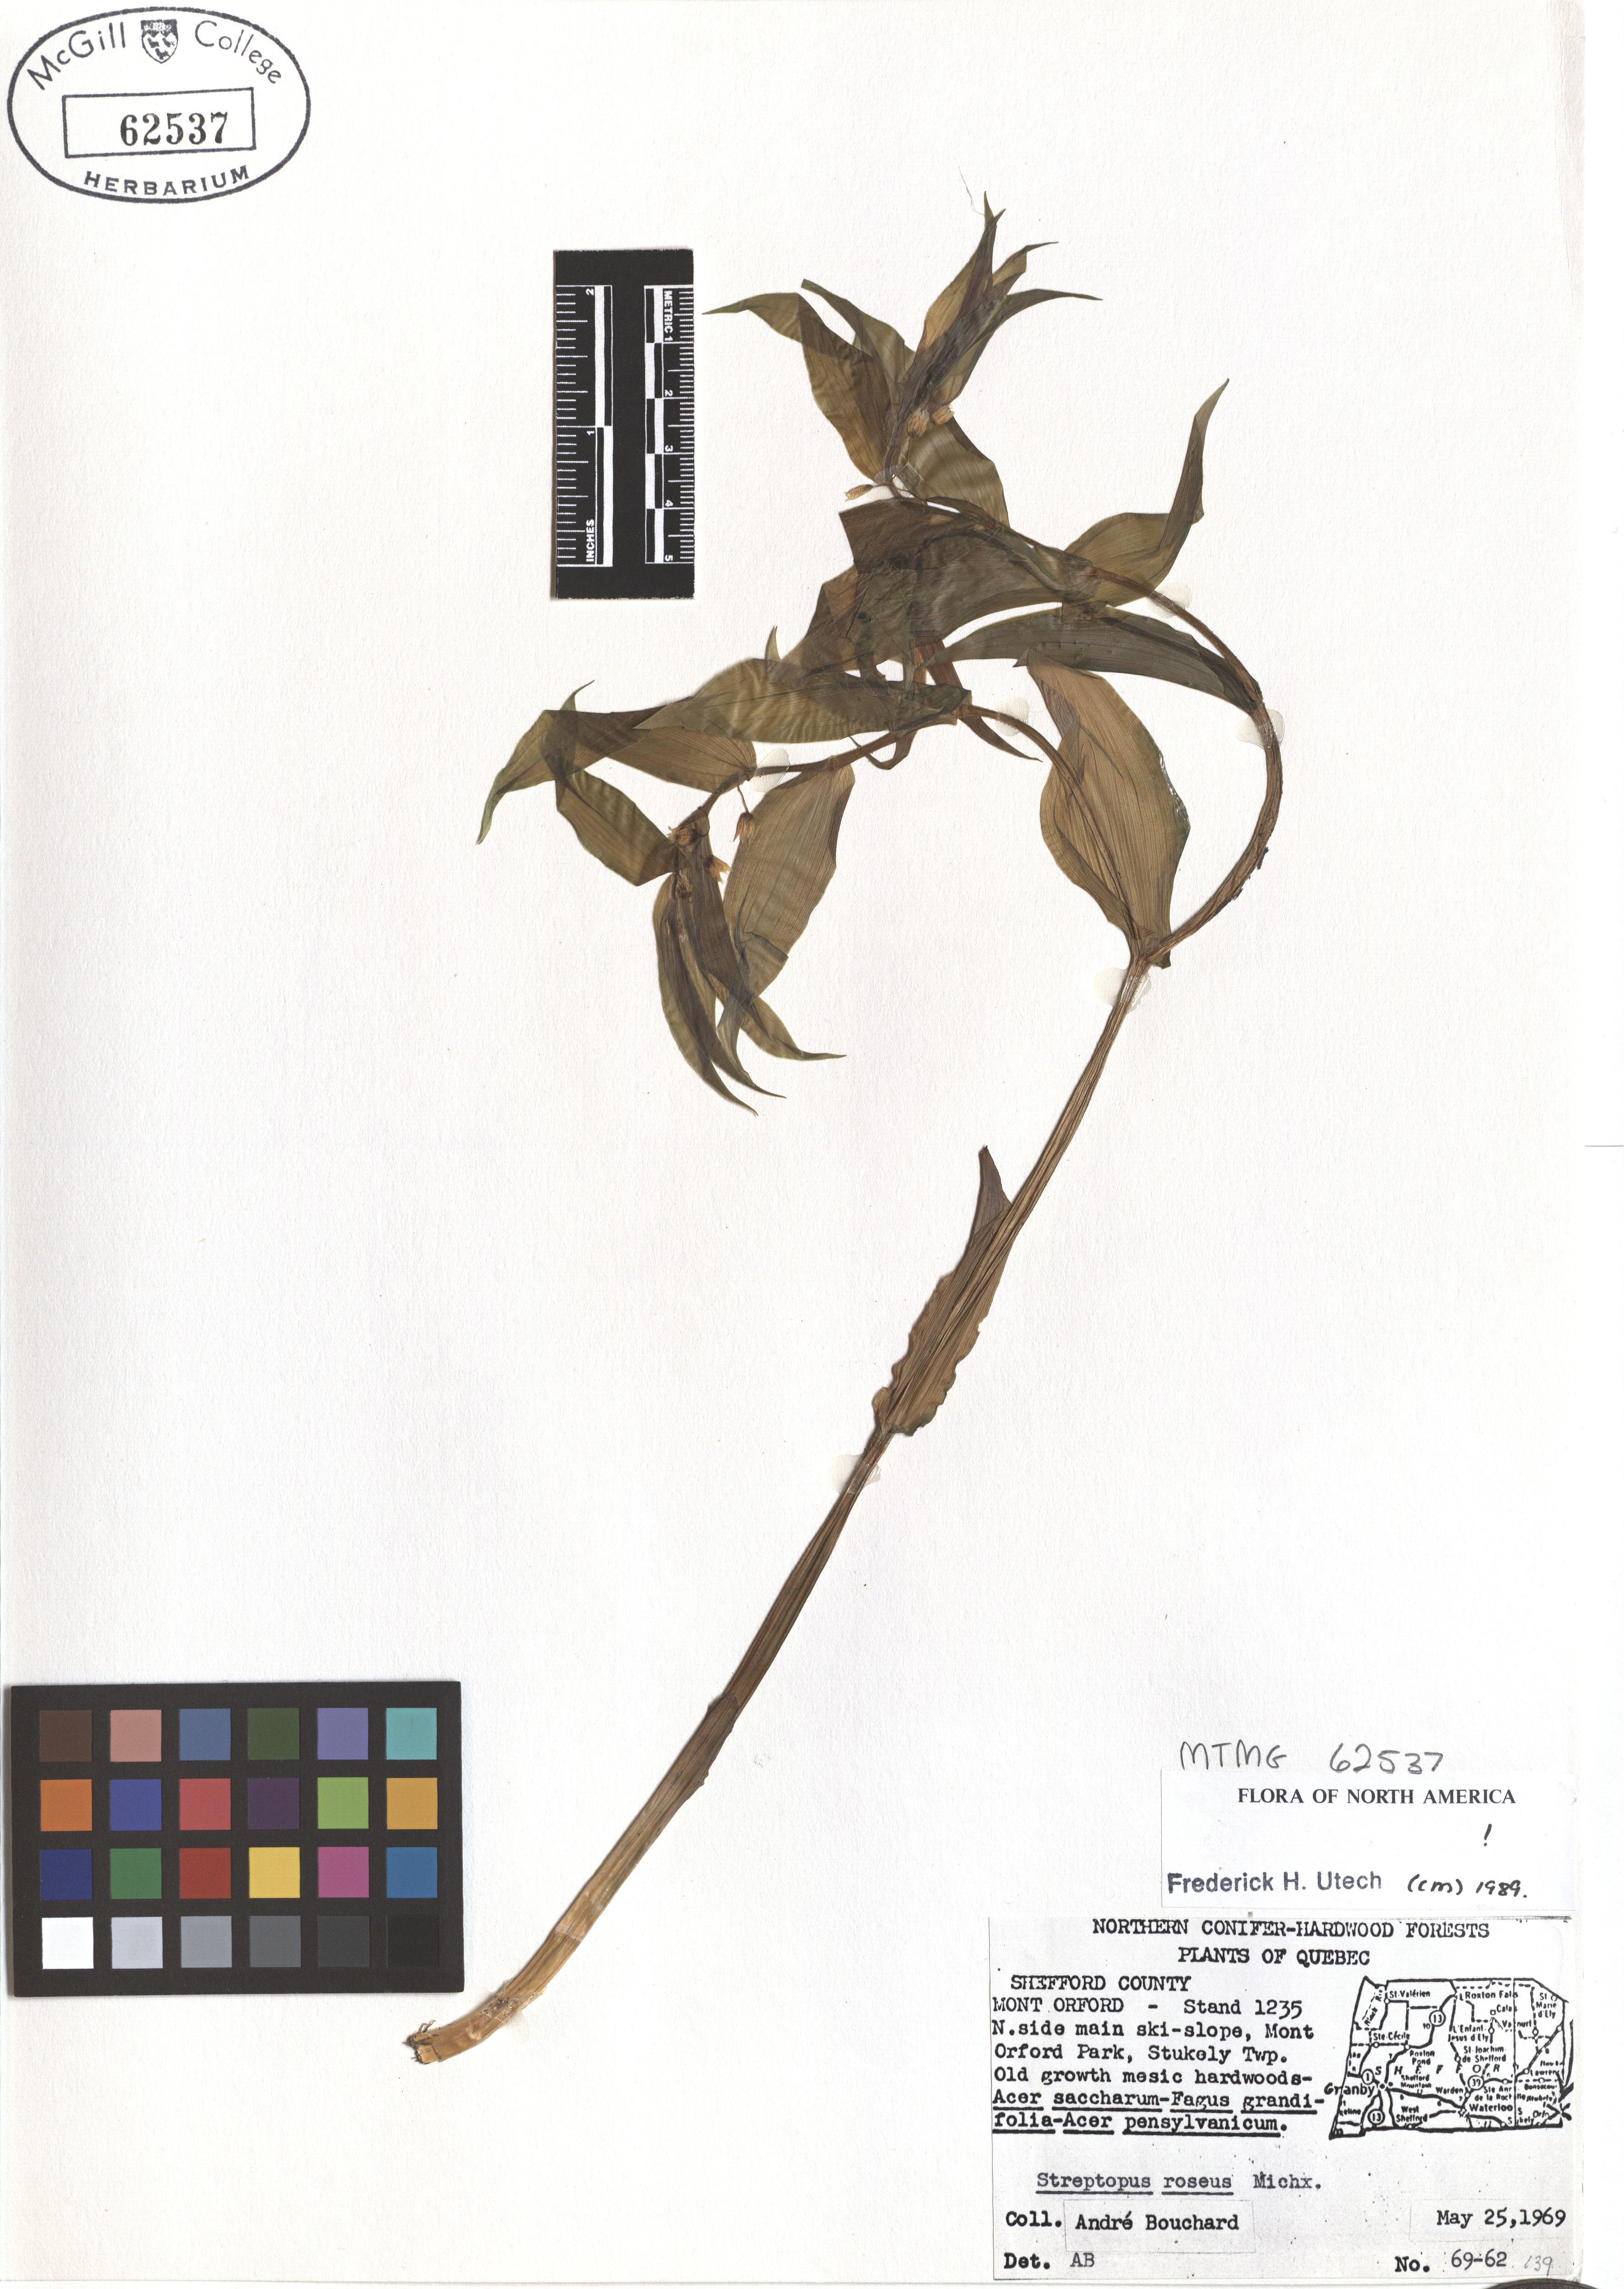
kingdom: Plantae
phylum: Tracheophyta
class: Liliopsida
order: Liliales
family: Liliaceae
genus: Streptopus
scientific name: Streptopus lanceolatus
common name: Rose mandarin
